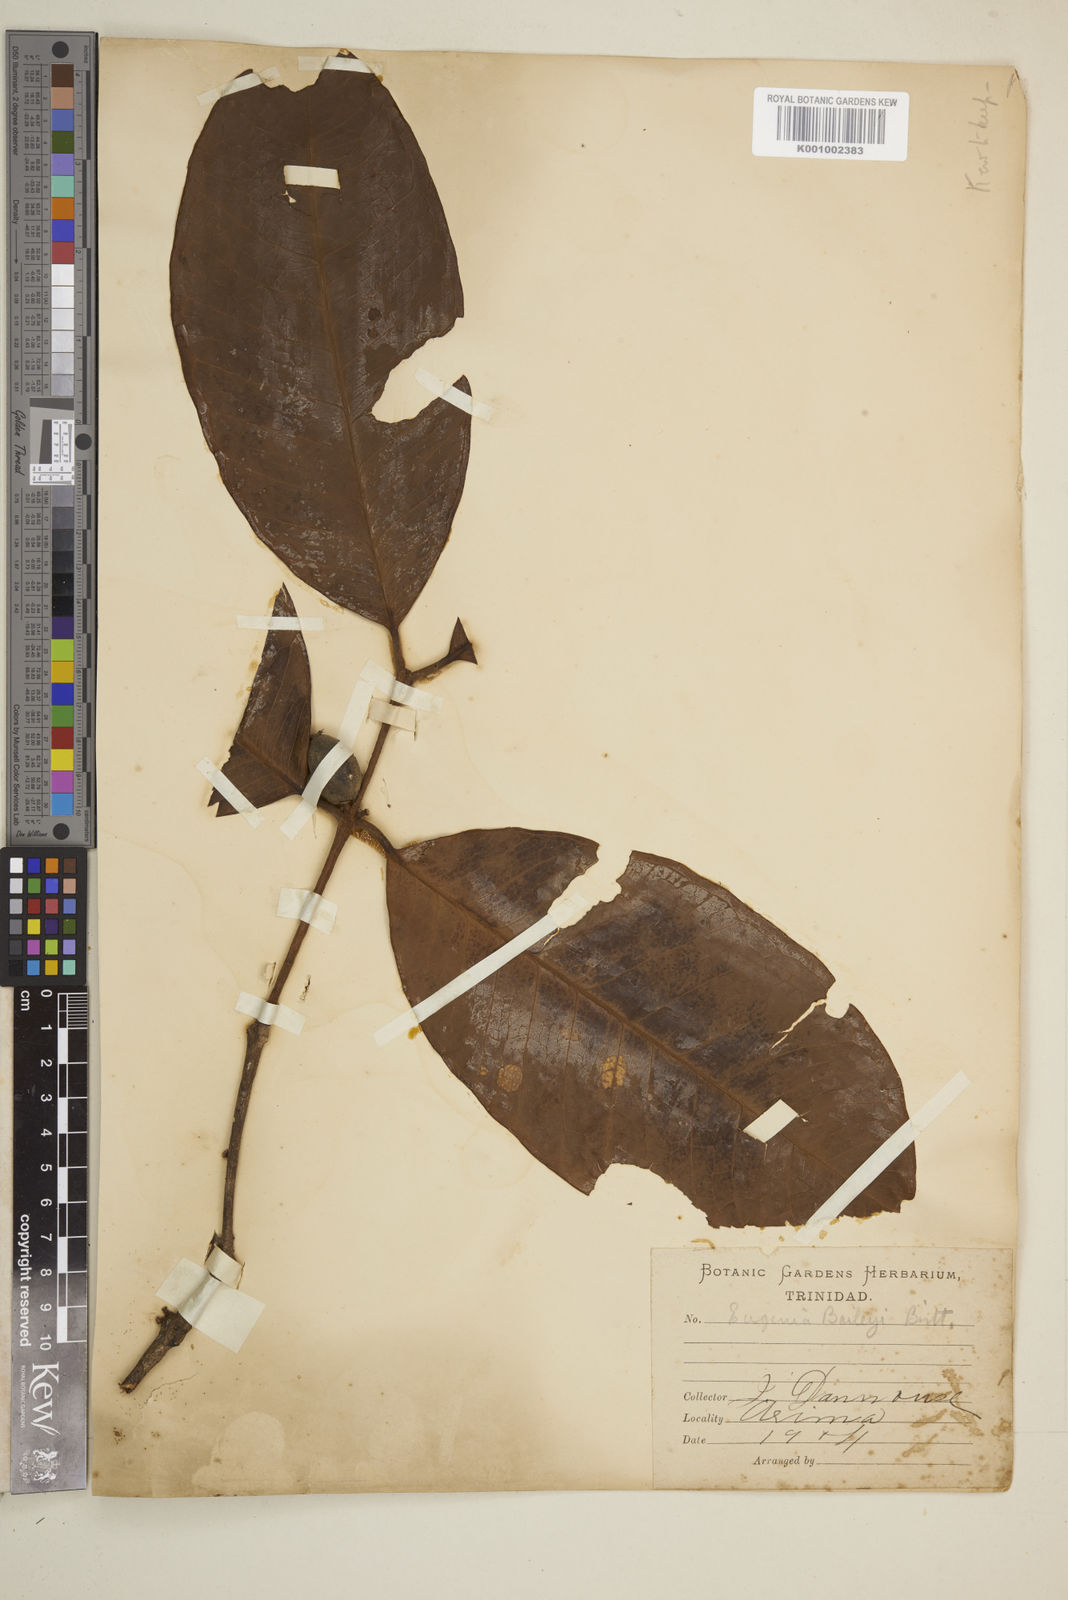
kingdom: Plantae
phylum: Tracheophyta
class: Magnoliopsida
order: Myrtales
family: Myrtaceae
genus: Eugenia
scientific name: Eugenia baileyi
